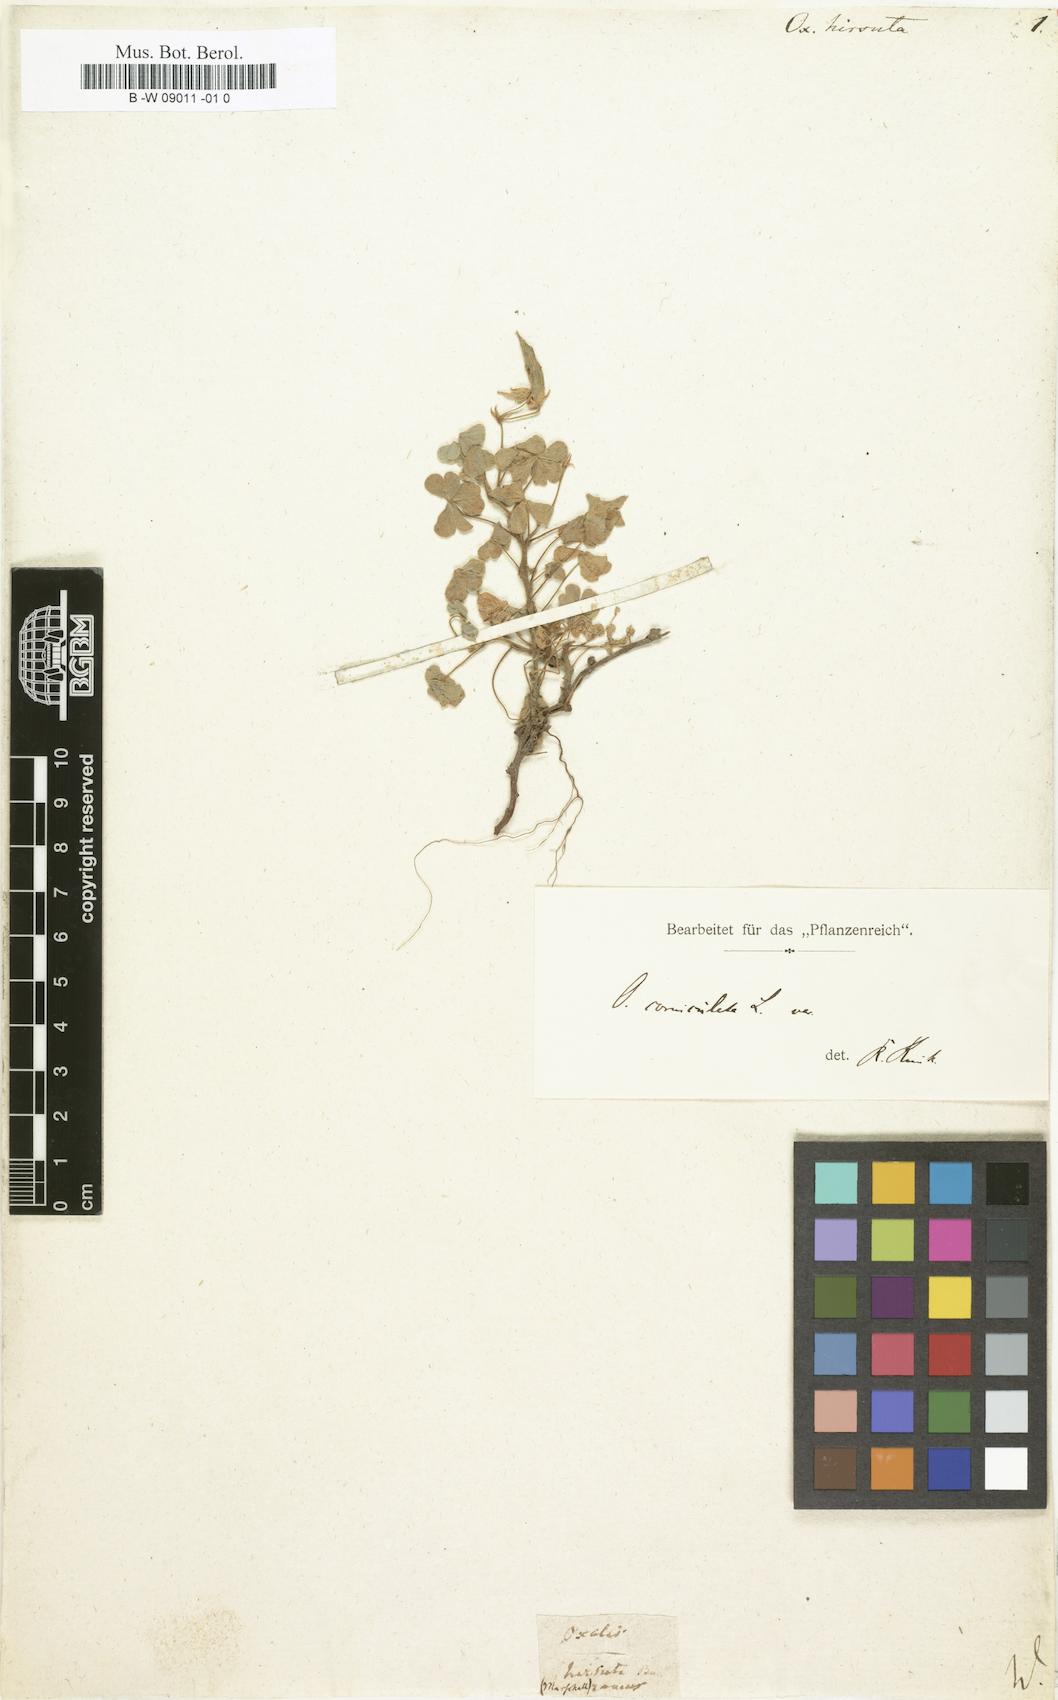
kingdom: Plantae
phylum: Tracheophyta
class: Magnoliopsida
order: Oxalidales
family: Oxalidaceae
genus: Oxalis
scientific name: Oxalis hirsuta
